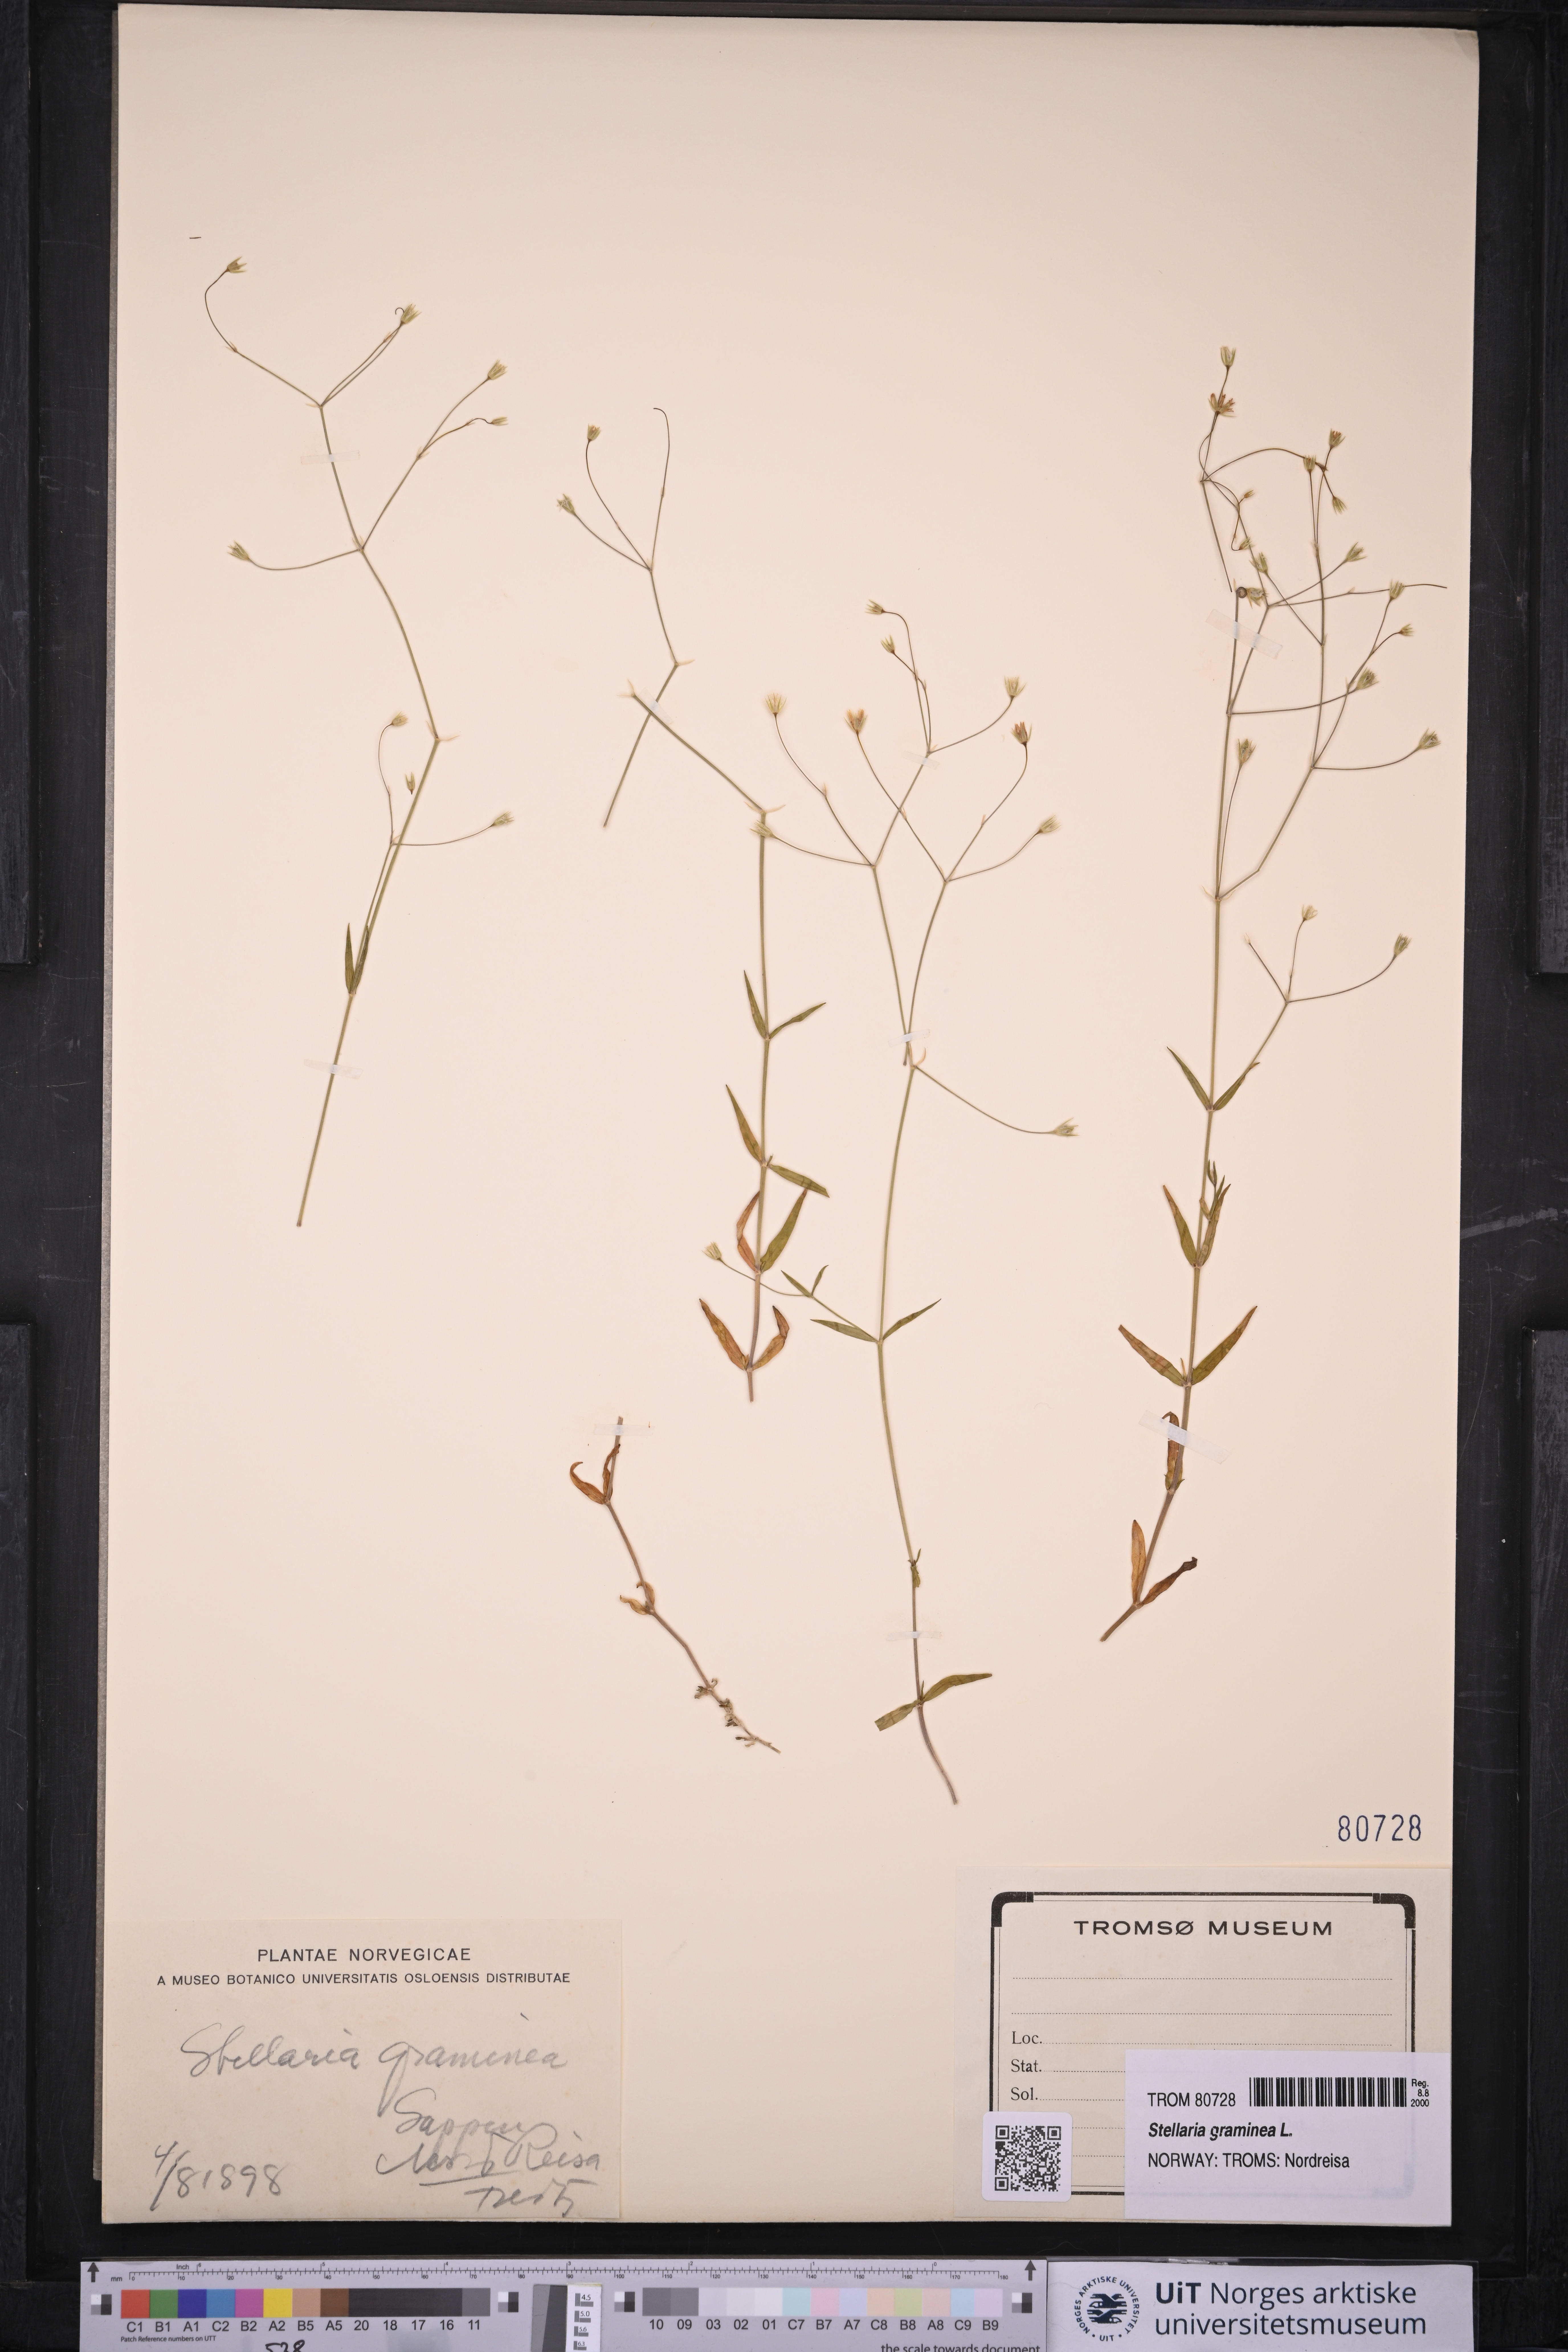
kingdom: Plantae
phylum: Tracheophyta
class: Magnoliopsida
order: Caryophyllales
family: Caryophyllaceae
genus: Stellaria
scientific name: Stellaria graminea
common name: Grass-like starwort
